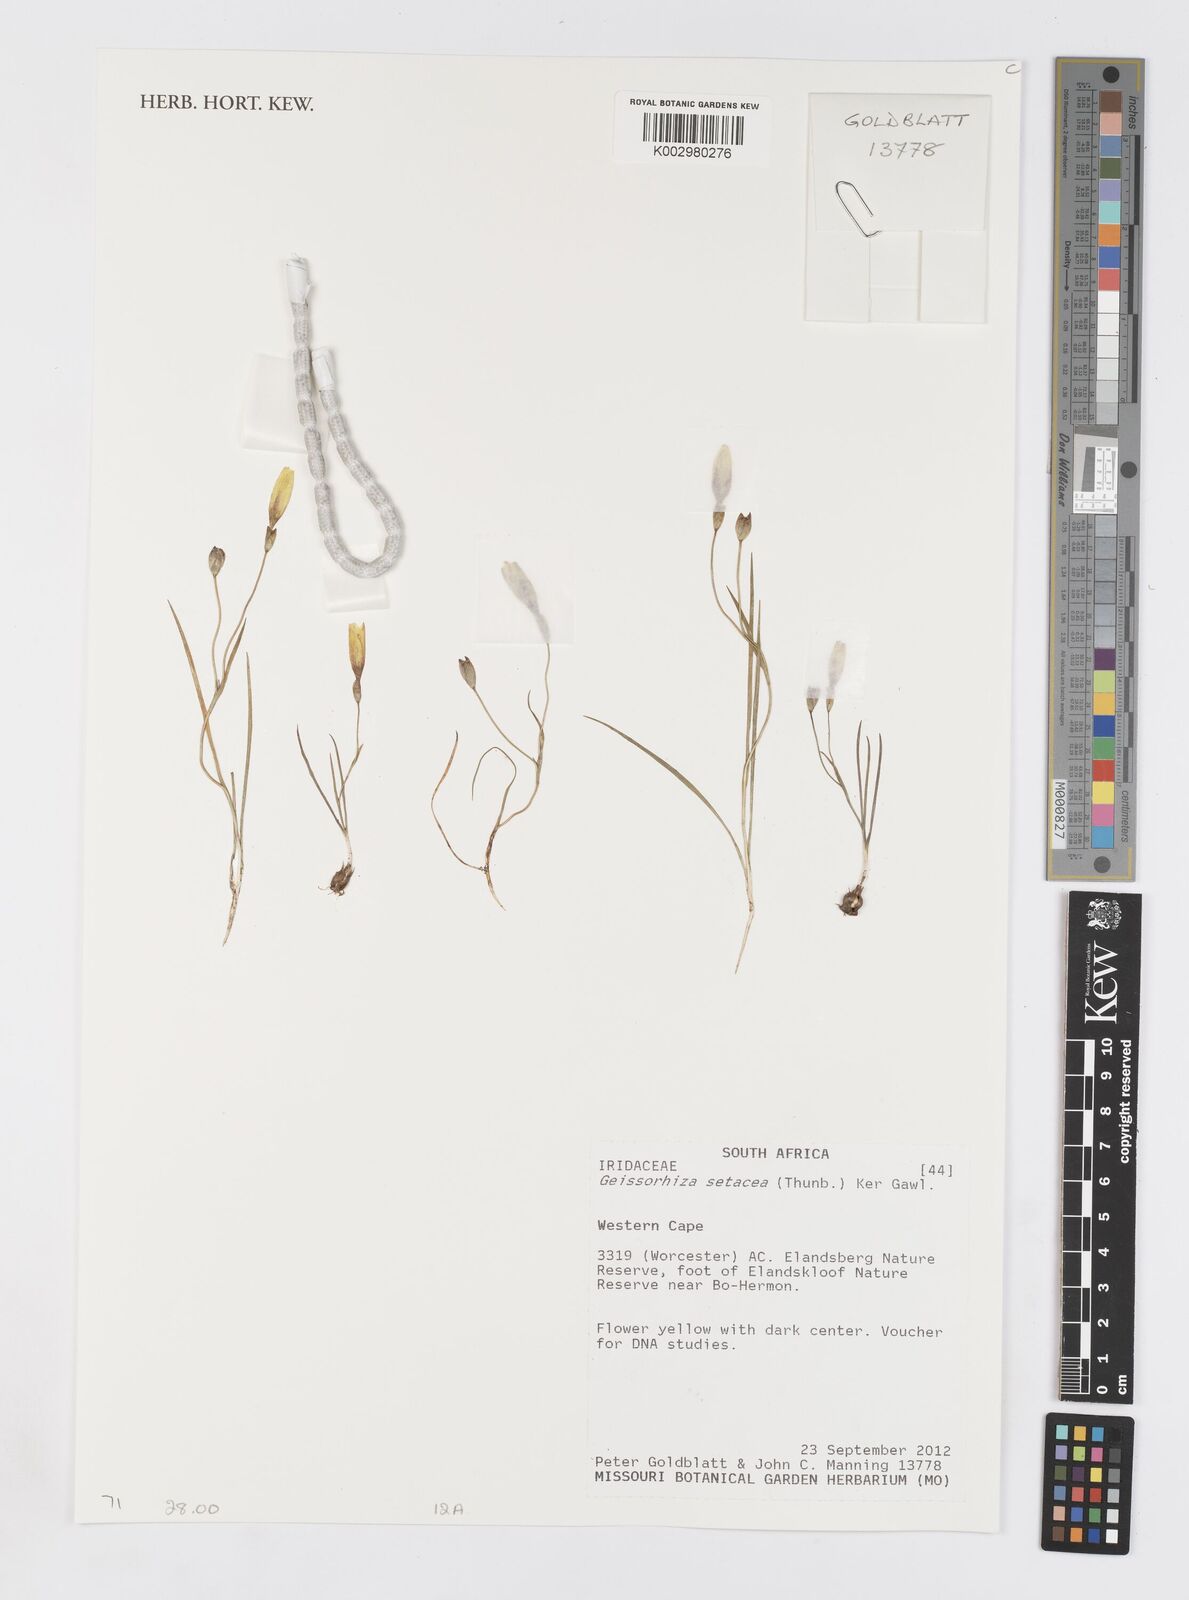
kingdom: Plantae
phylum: Tracheophyta
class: Liliopsida
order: Asparagales
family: Iridaceae
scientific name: Iridaceae
